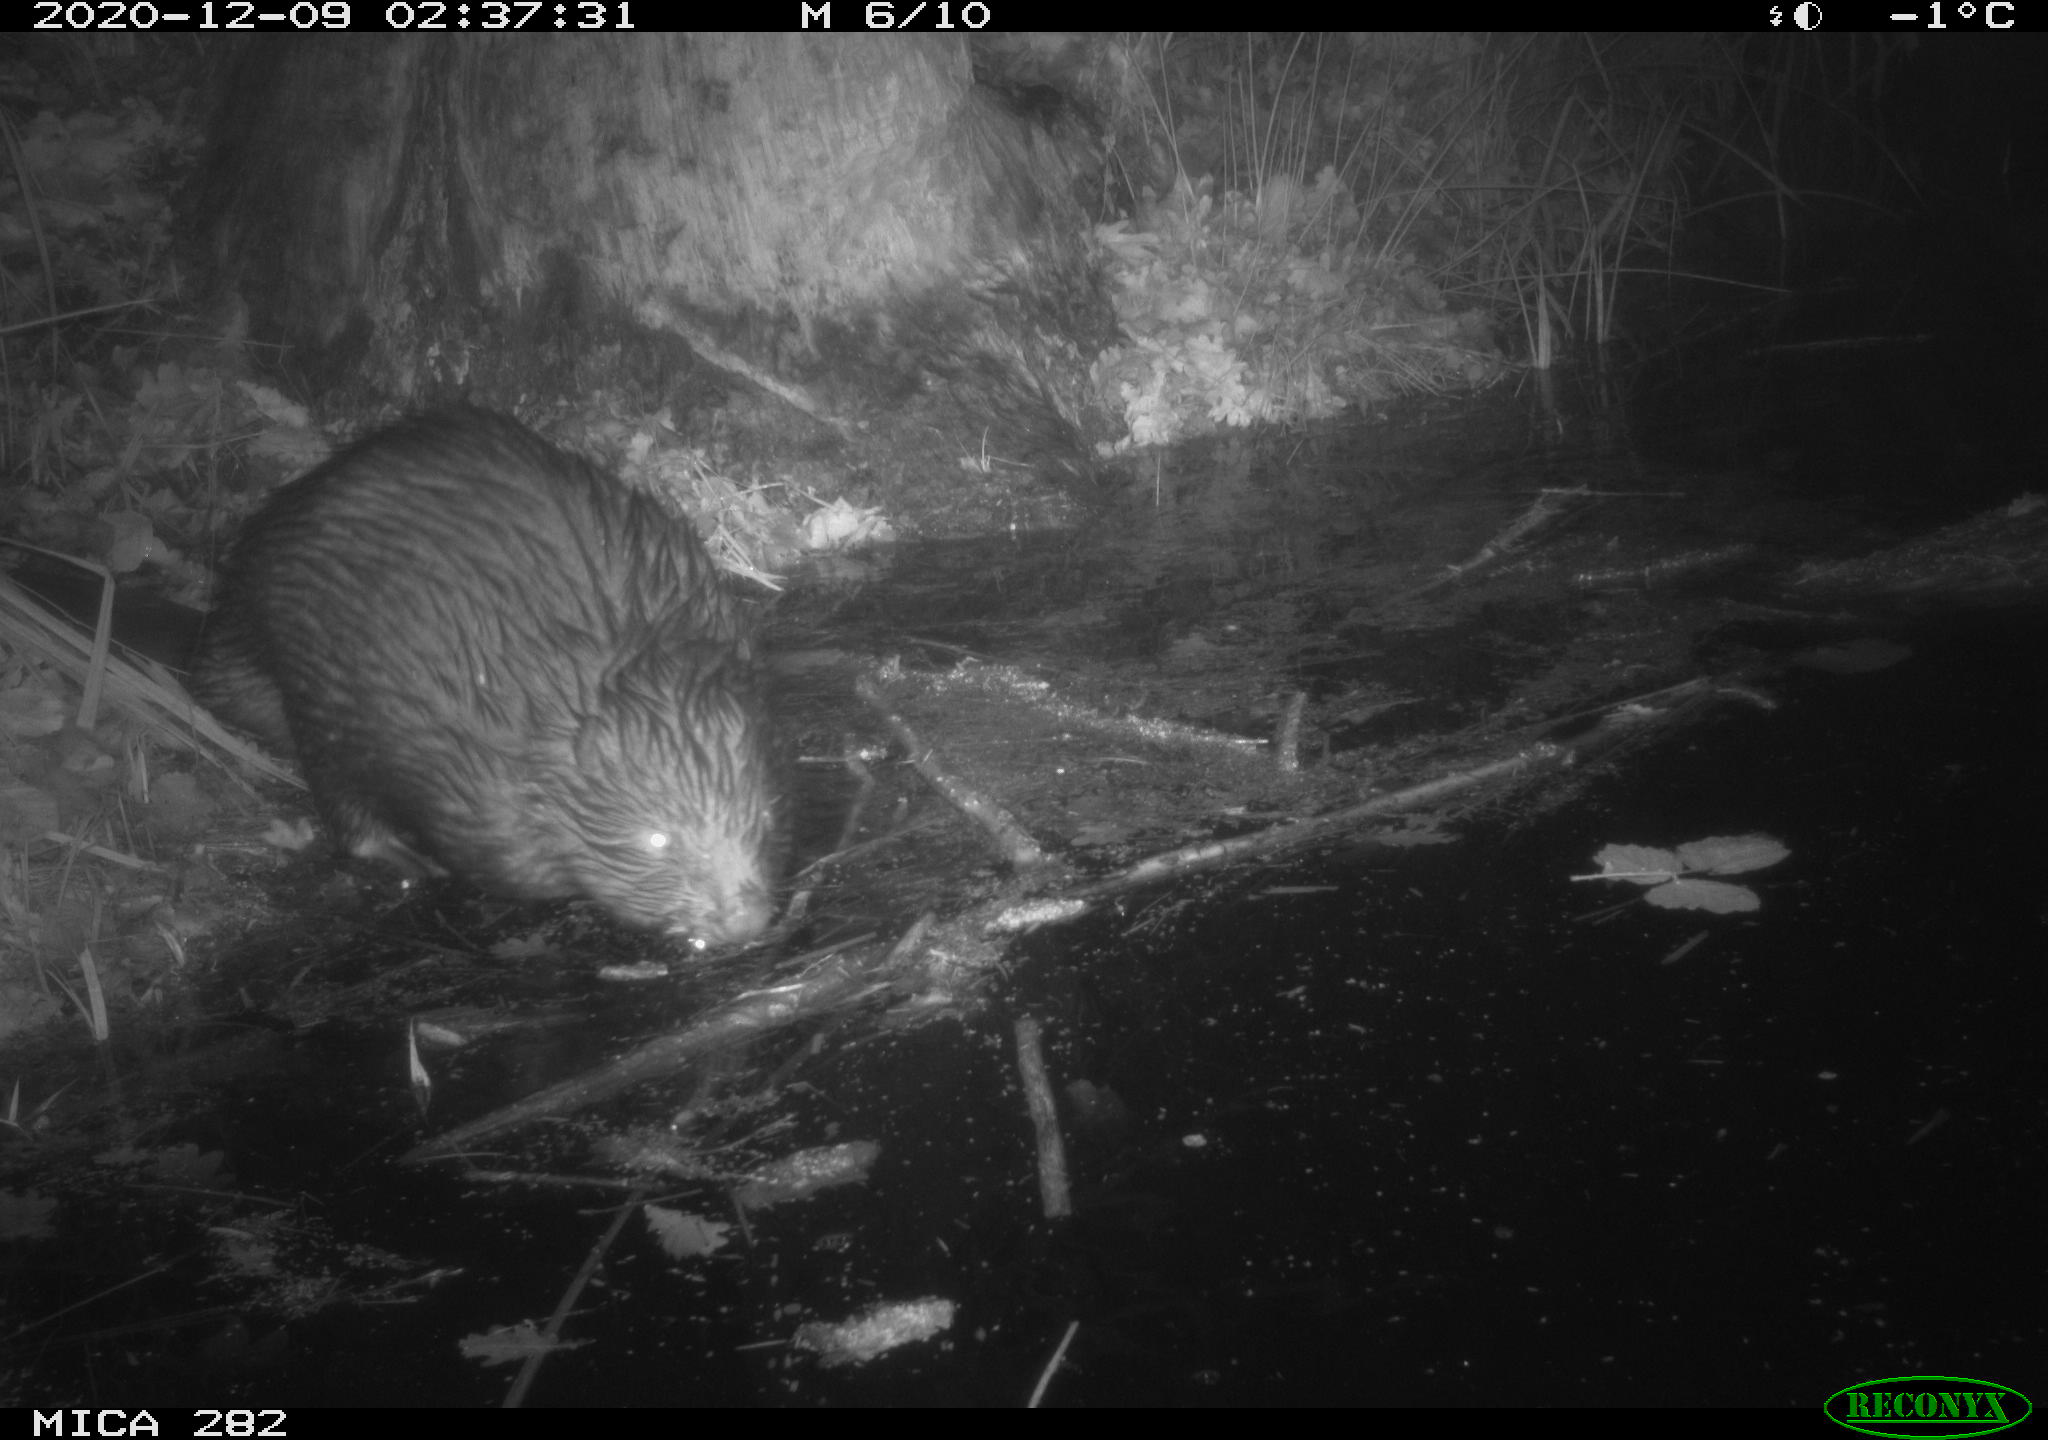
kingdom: Animalia
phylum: Chordata
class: Mammalia
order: Rodentia
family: Castoridae
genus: Castor
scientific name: Castor fiber
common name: Eurasian beaver
